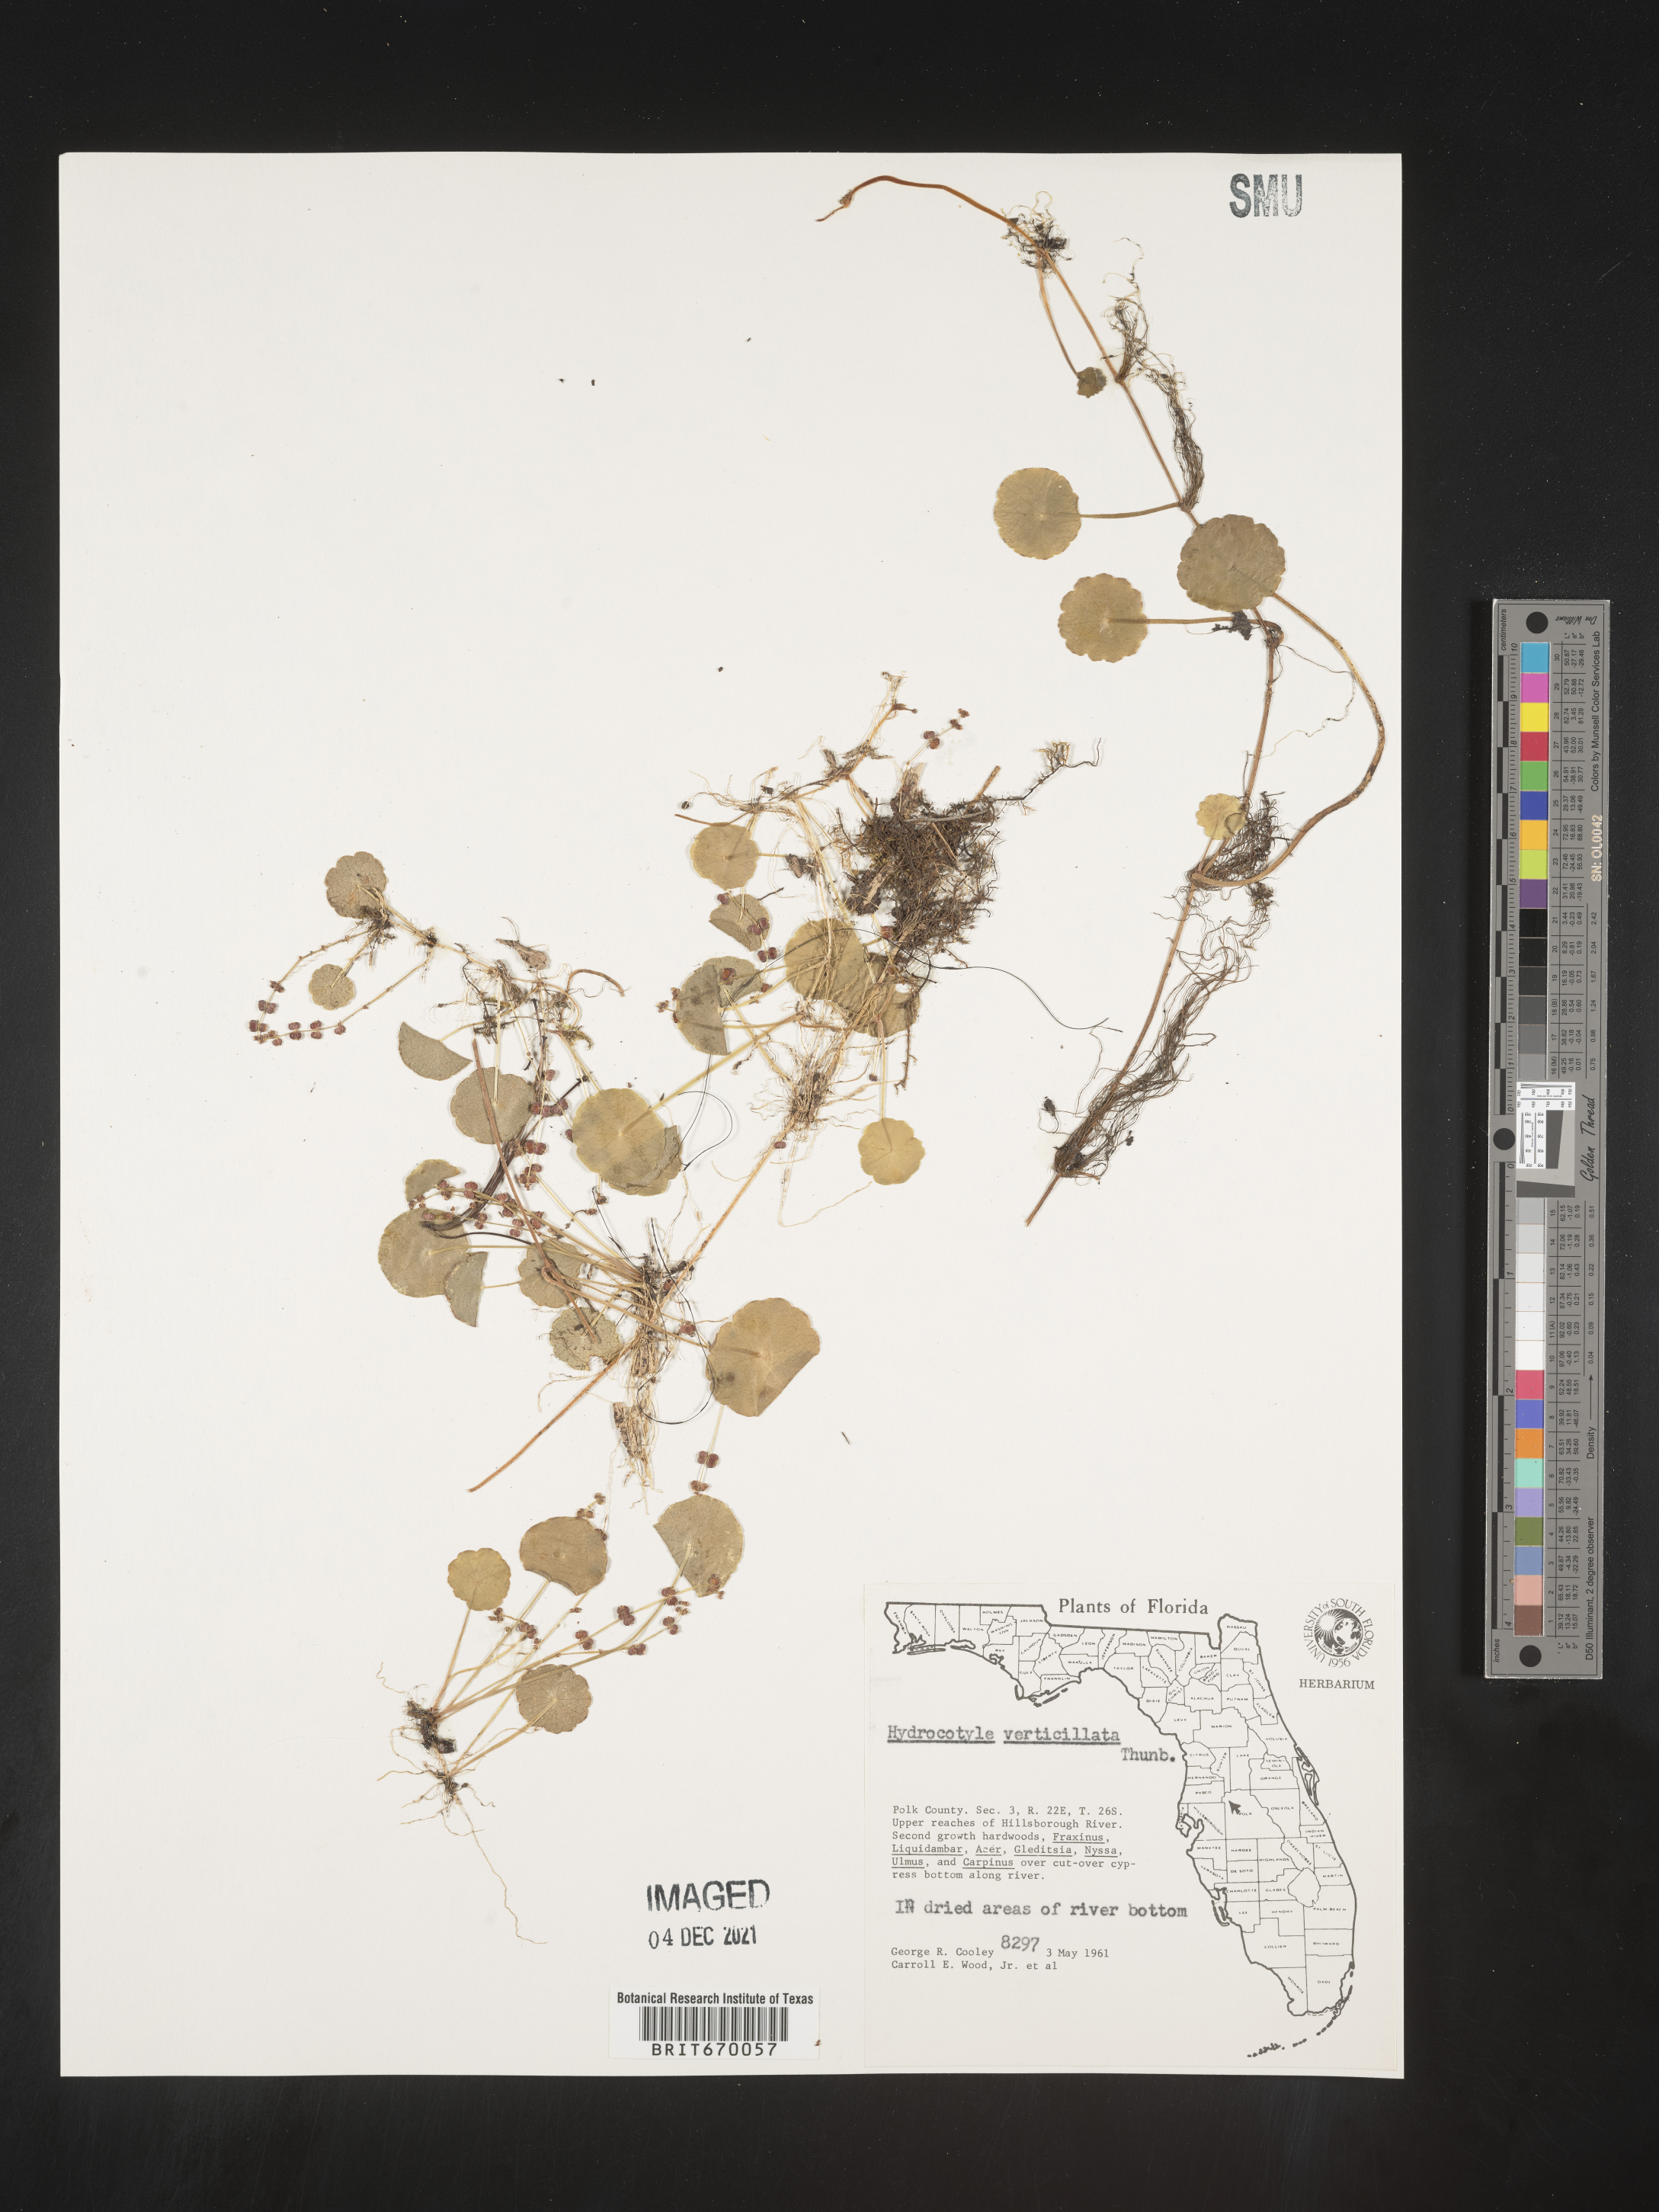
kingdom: Plantae
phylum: Tracheophyta
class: Magnoliopsida
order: Apiales
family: Araliaceae
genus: Hydrocotyle
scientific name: Hydrocotyle verticillata
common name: Whorled marshpennywort
